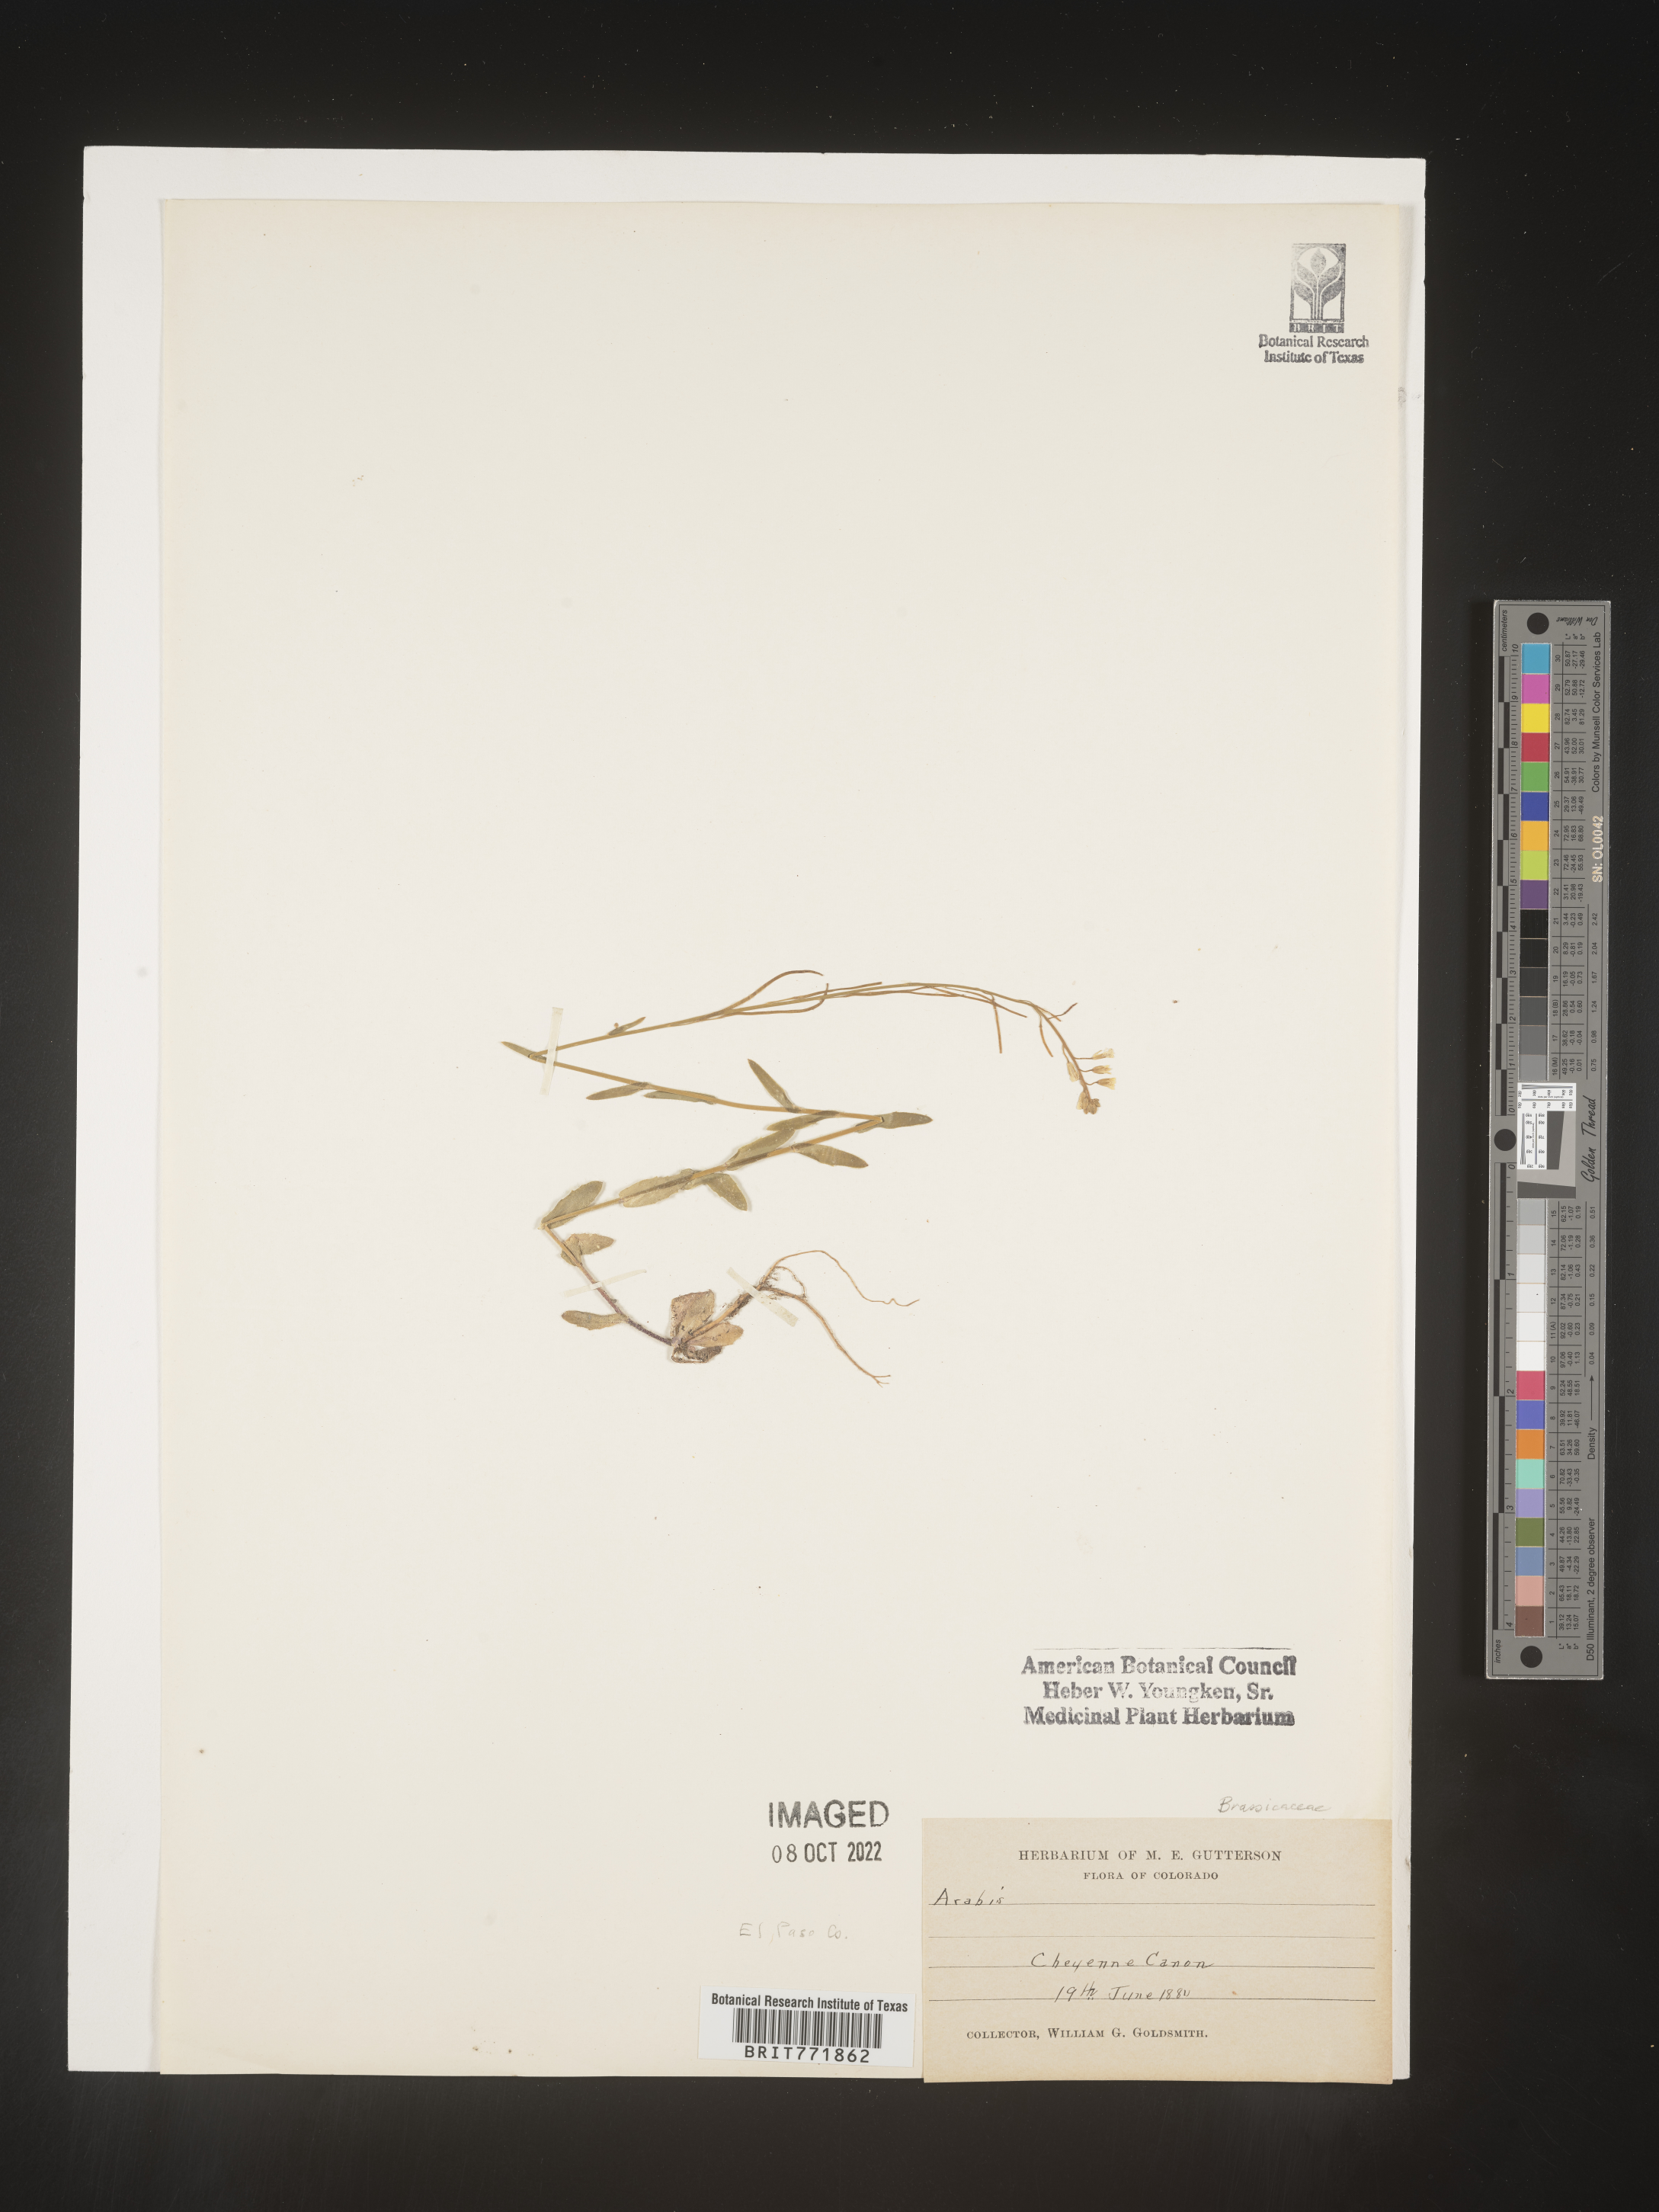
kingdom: Plantae
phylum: Tracheophyta
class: Magnoliopsida
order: Brassicales
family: Brassicaceae
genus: Arabis
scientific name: Arabis
